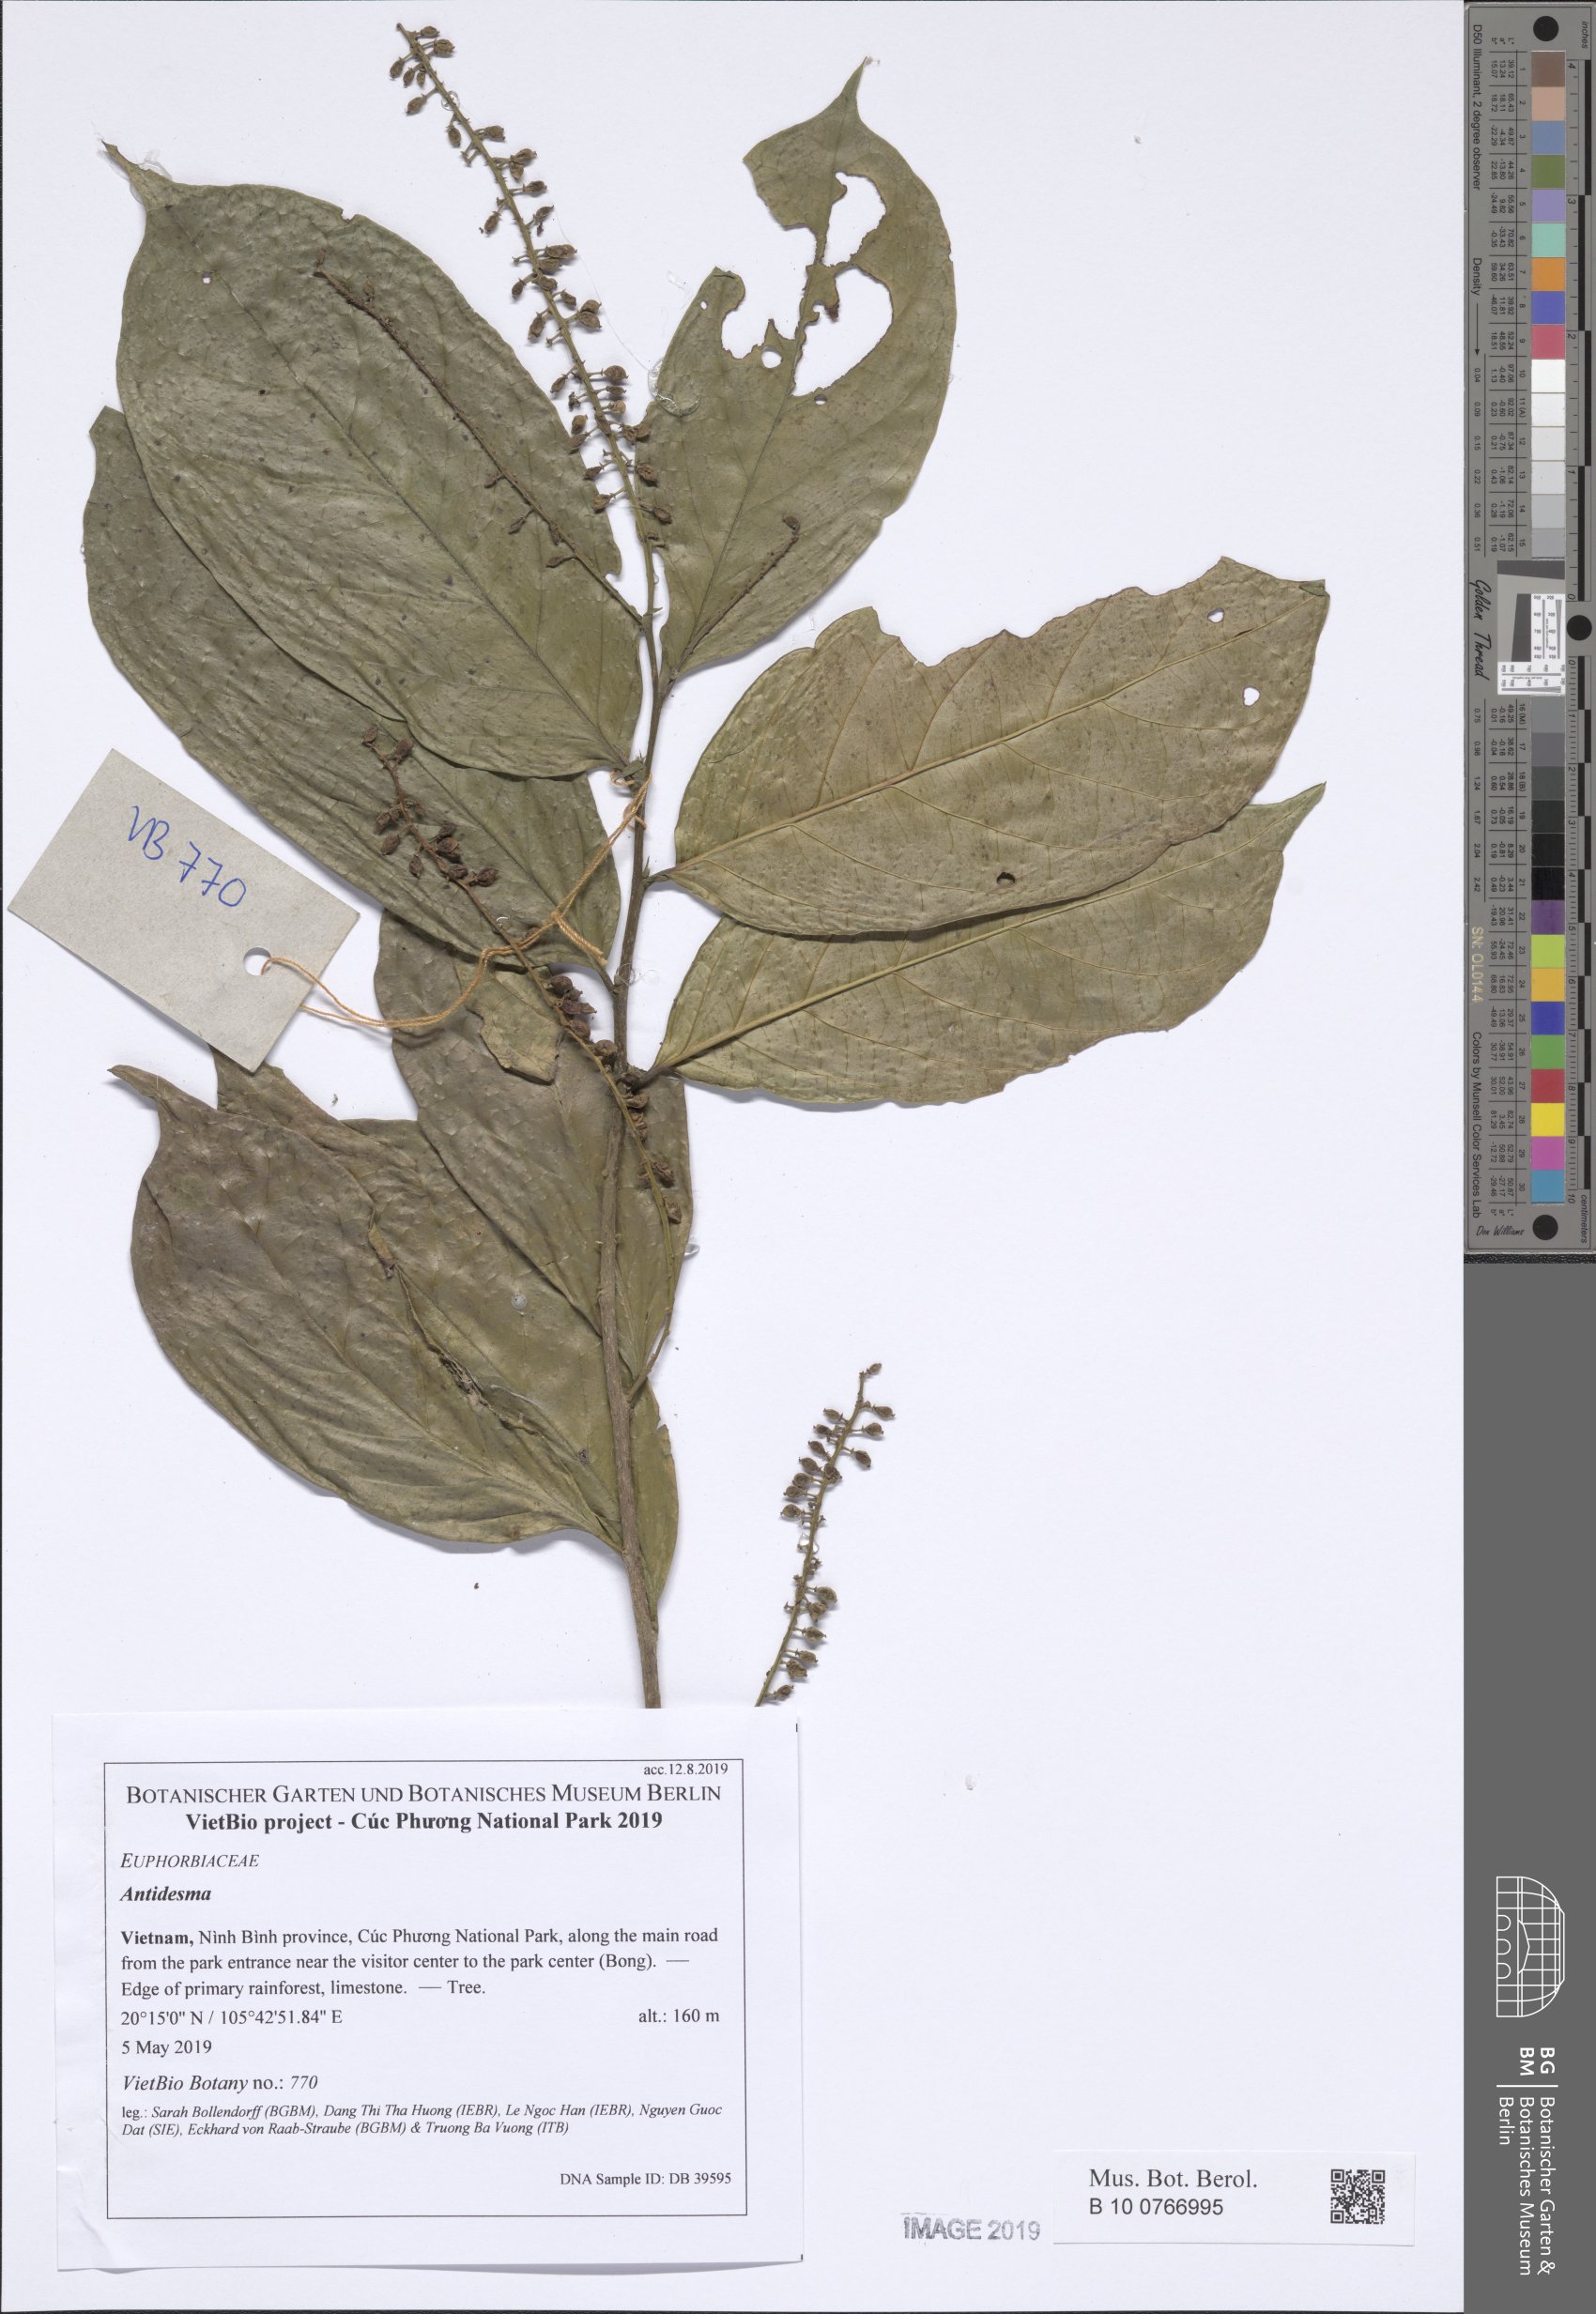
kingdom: Plantae
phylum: Tracheophyta
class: Magnoliopsida
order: Malpighiales
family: Phyllanthaceae
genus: Antidesma
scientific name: Antidesma bunius
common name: Chinese-laurel
